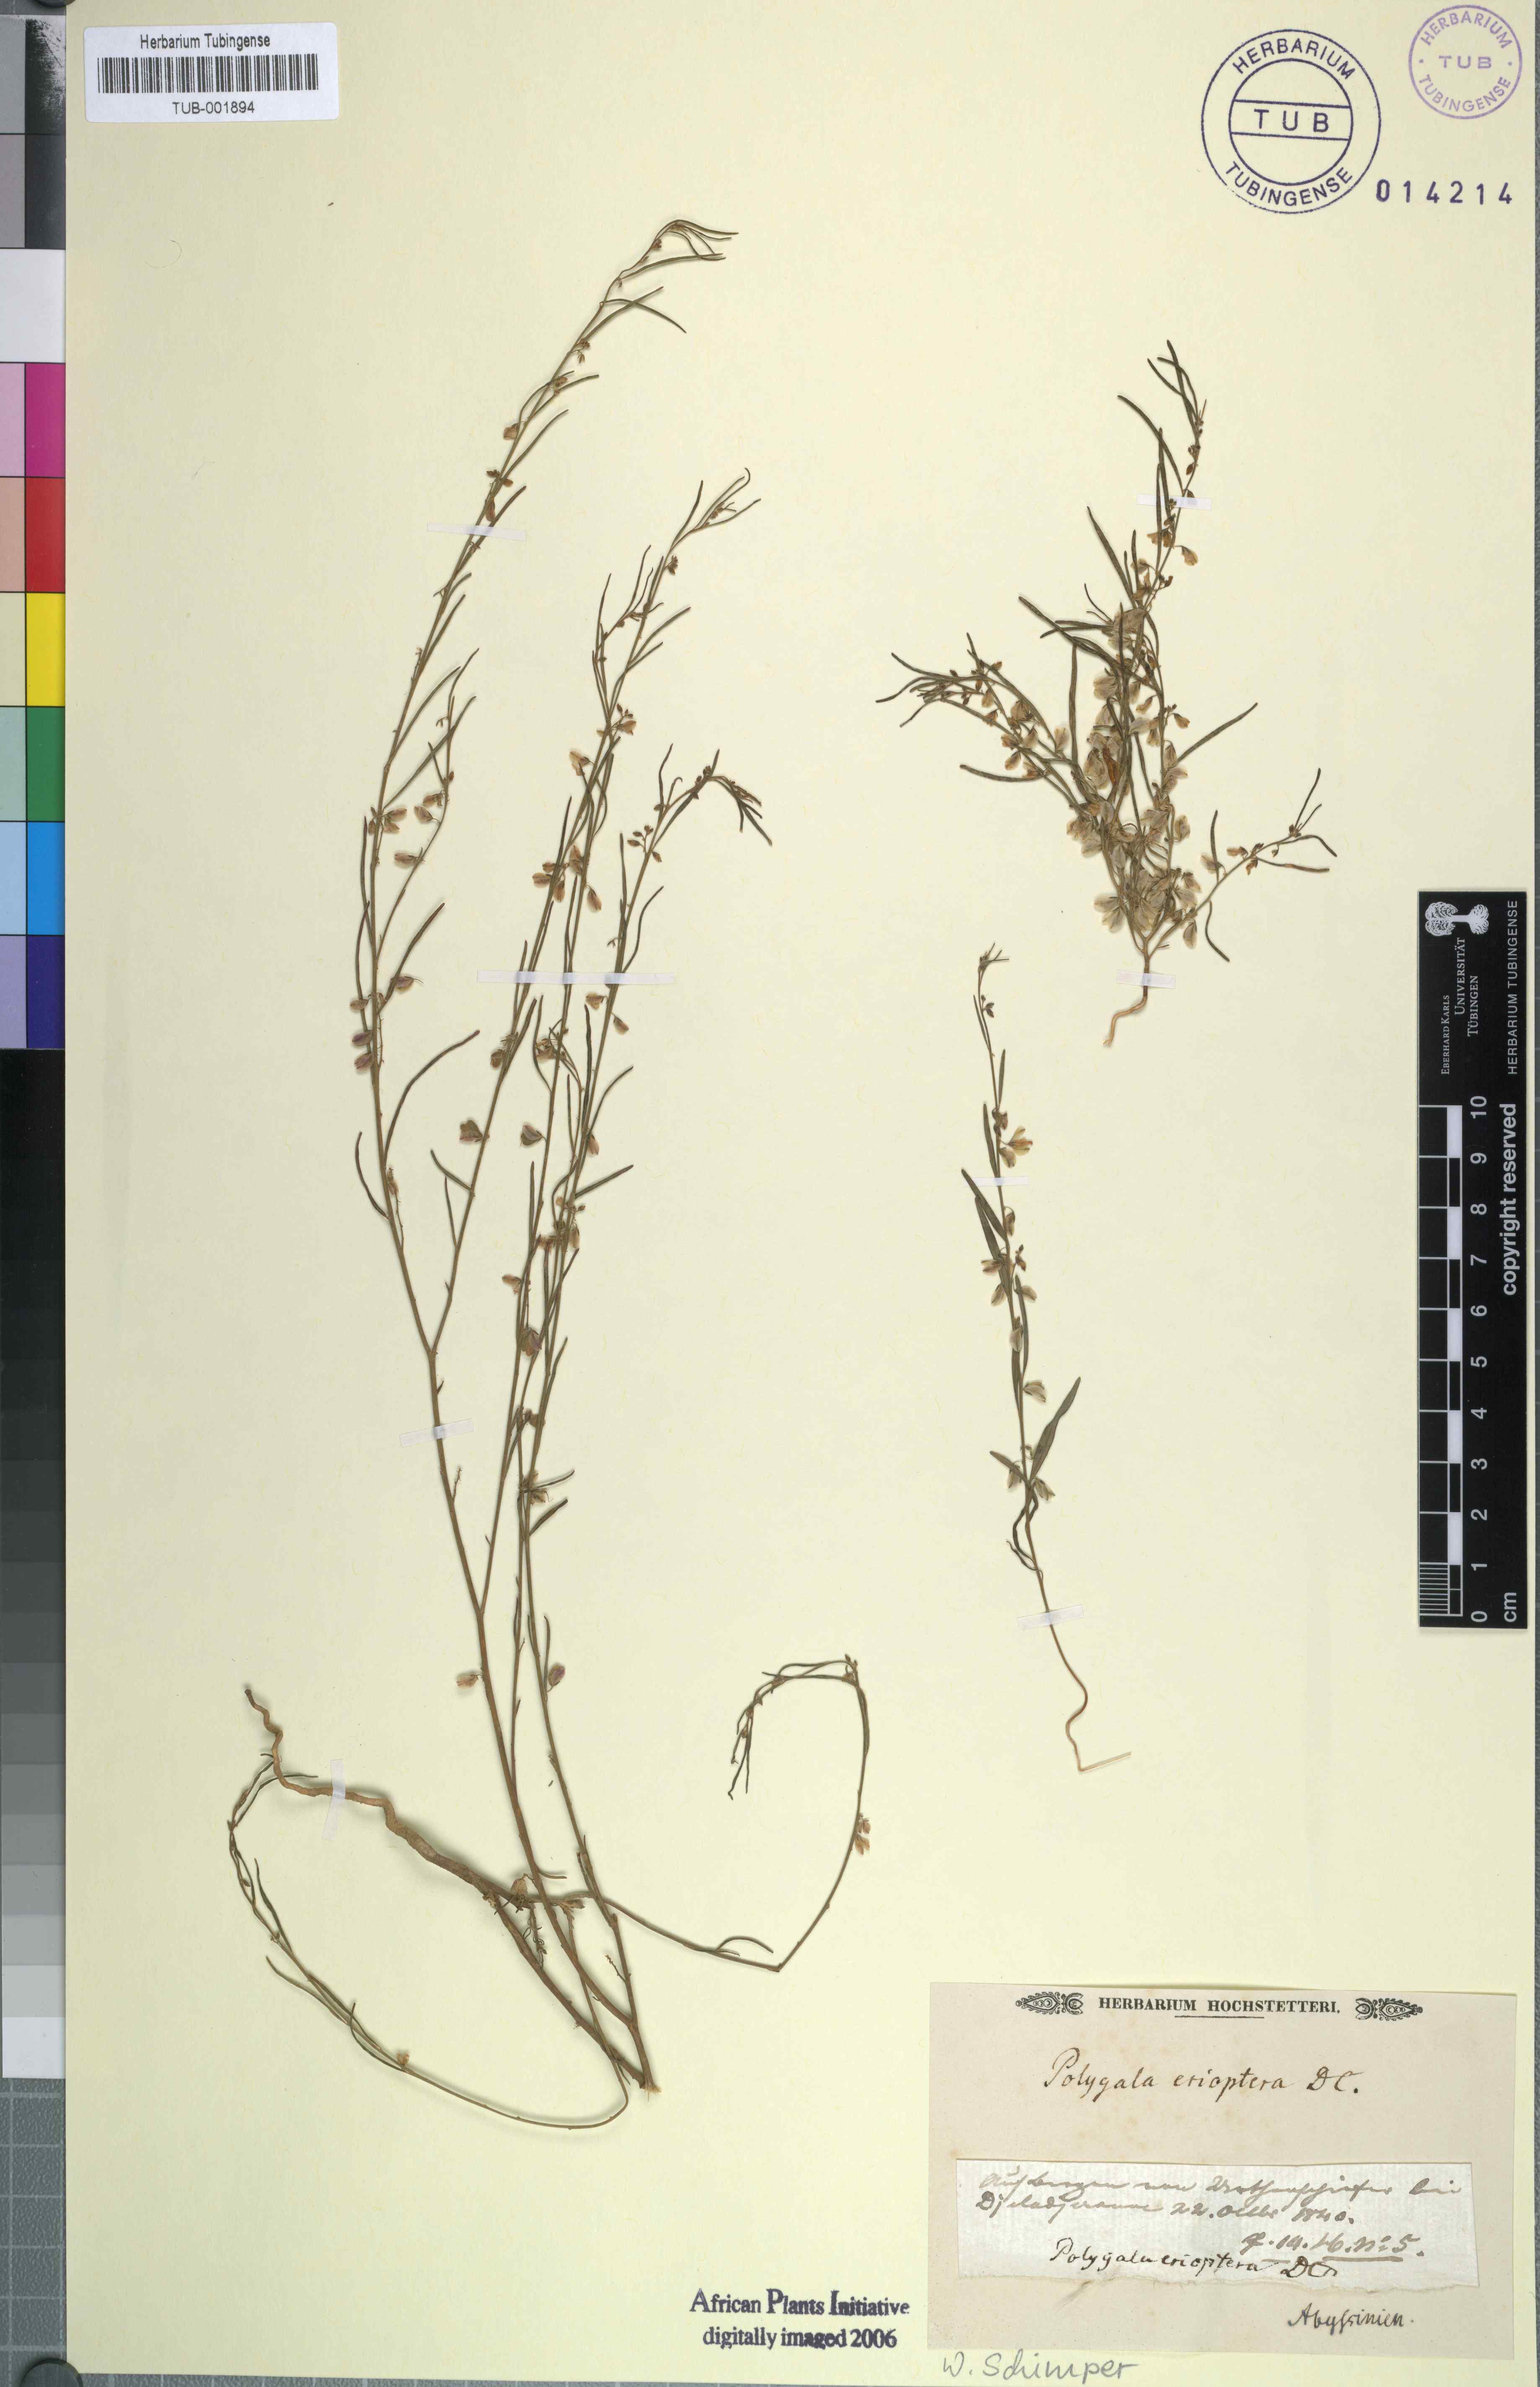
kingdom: Plantae
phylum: Tracheophyta
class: Magnoliopsida
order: Fabales
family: Polygalaceae
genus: Polygala
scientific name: Polygala erioptera
